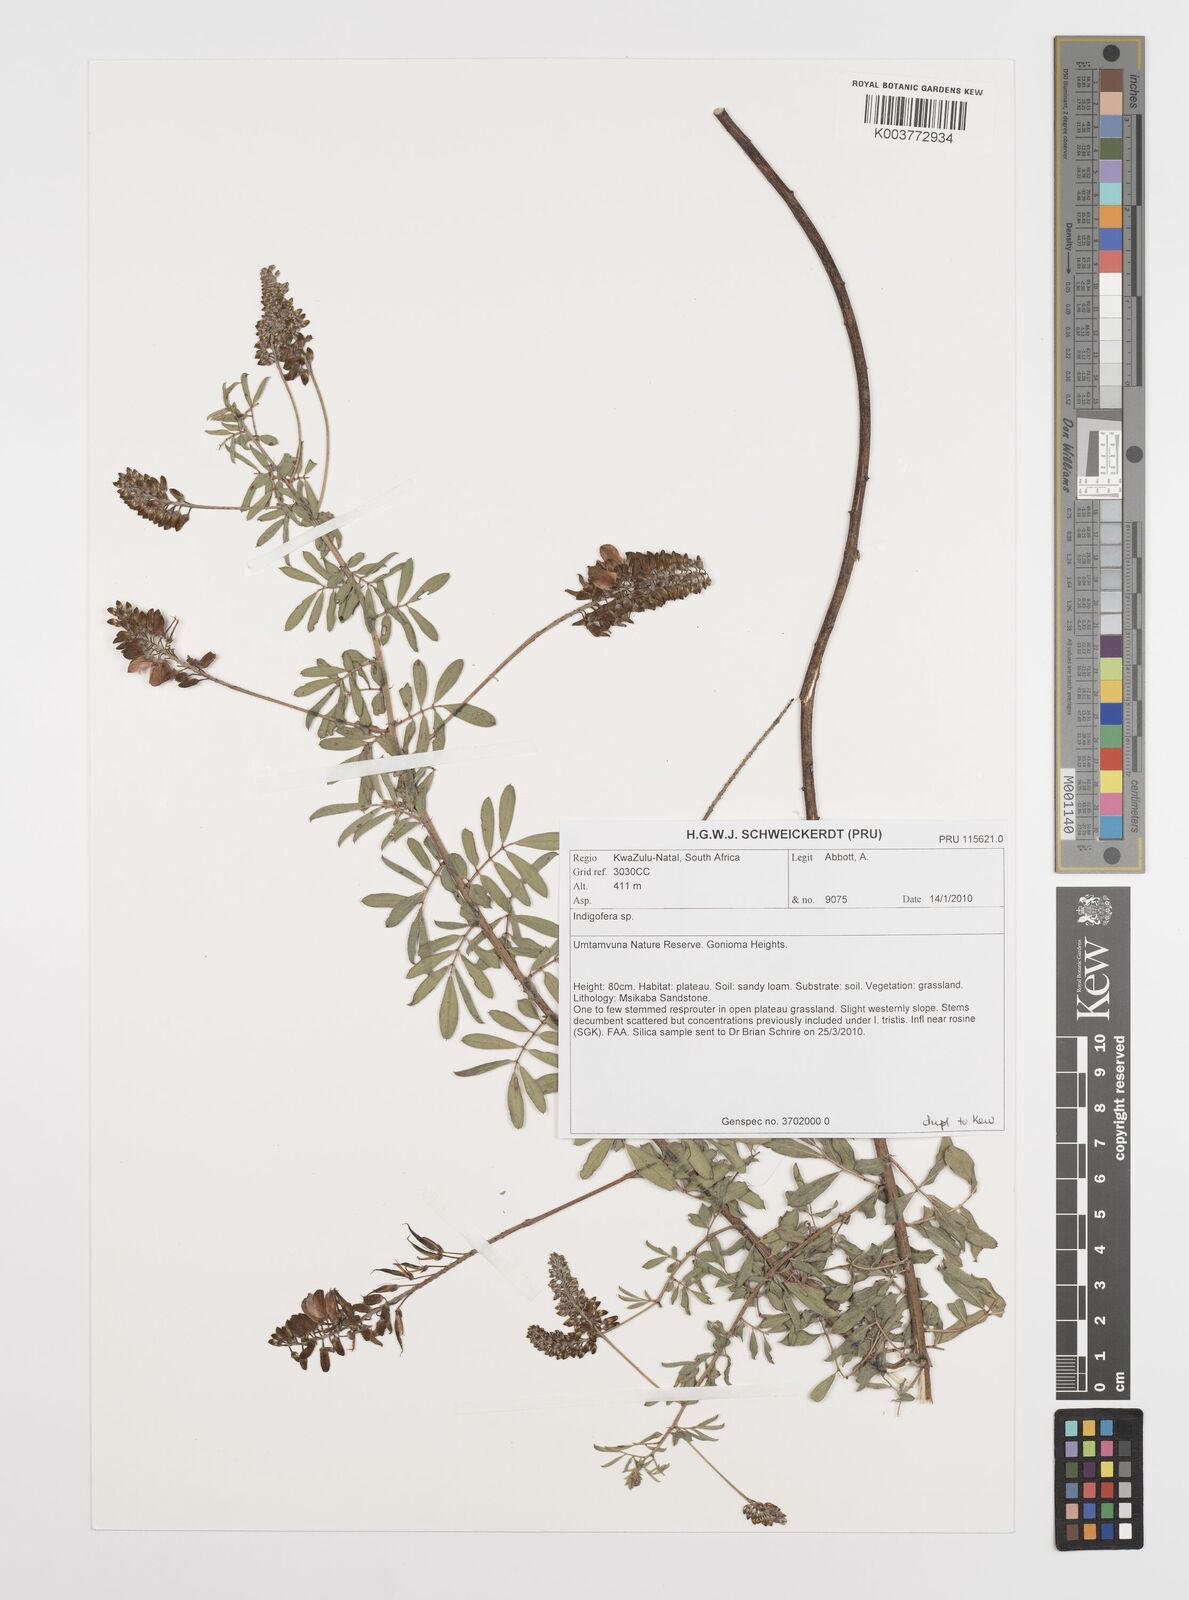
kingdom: Plantae
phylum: Tracheophyta
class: Magnoliopsida
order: Fabales
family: Fabaceae
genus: Indigofera
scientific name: Indigofera
